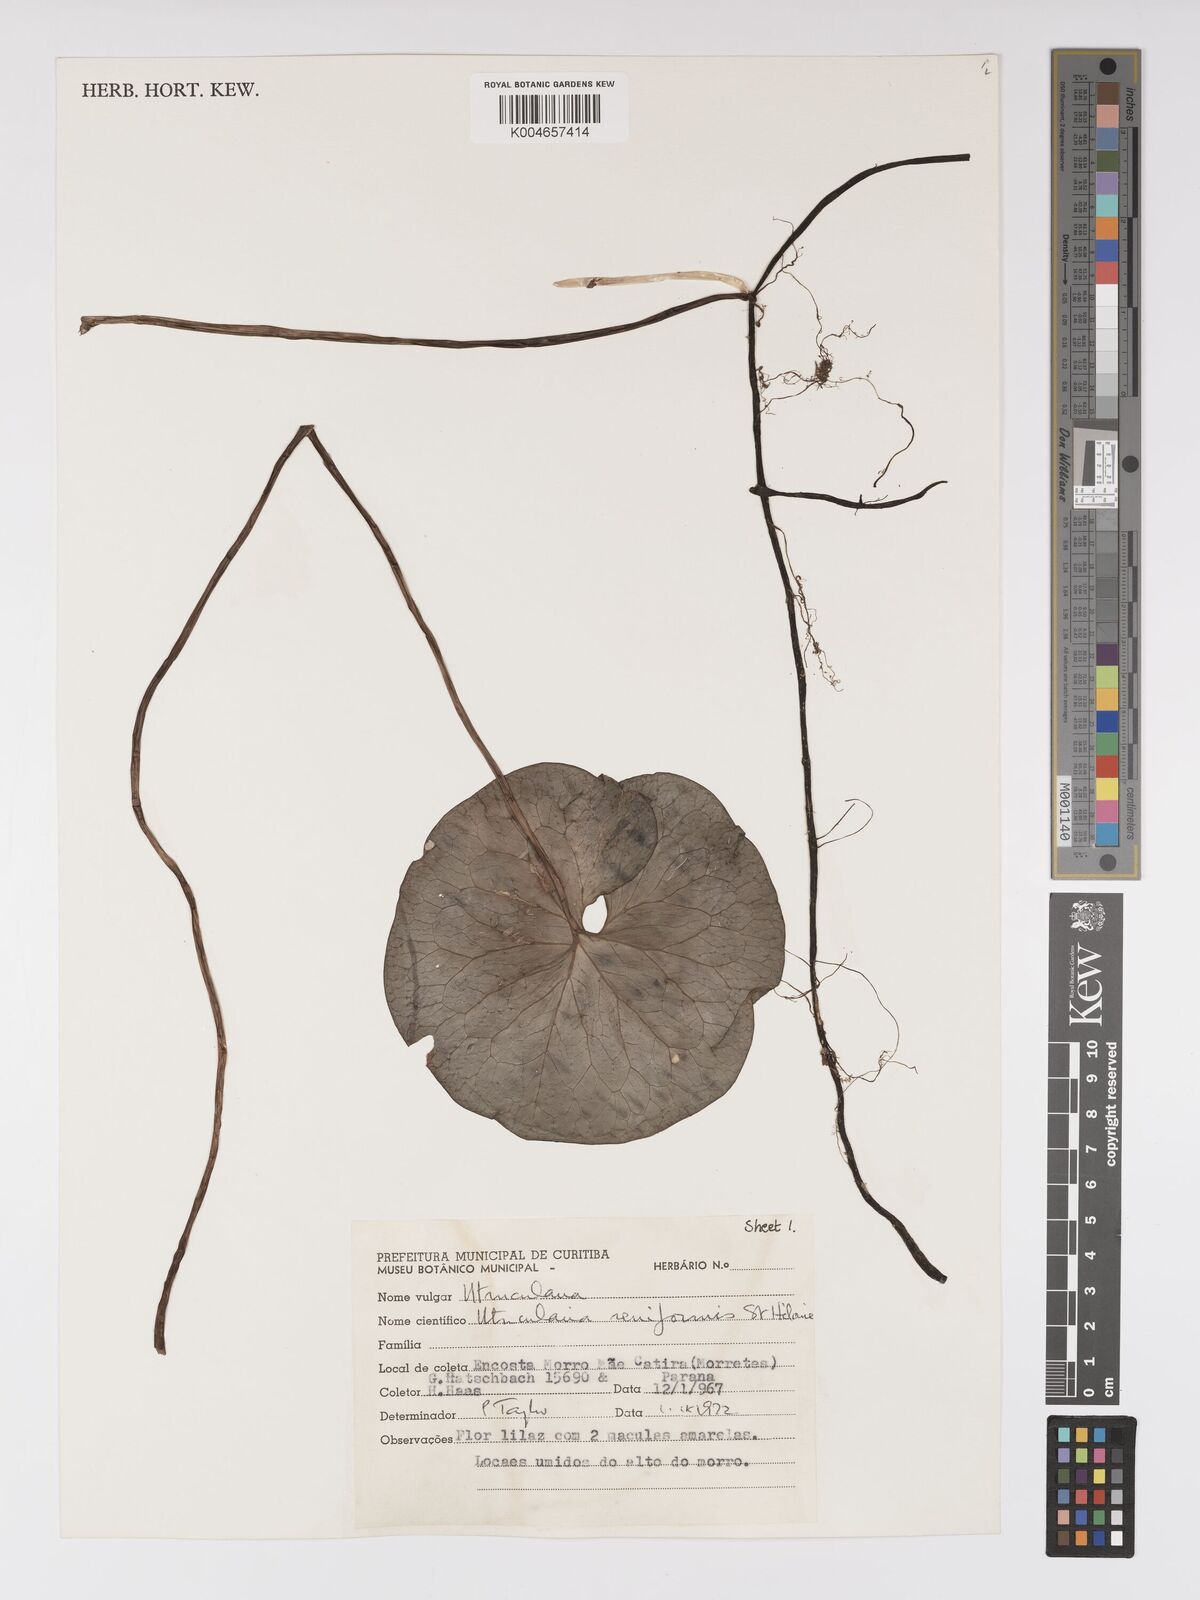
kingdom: Plantae
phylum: Tracheophyta
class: Magnoliopsida
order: Lamiales
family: Lentibulariaceae
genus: Utricularia
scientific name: Utricularia reniformis
